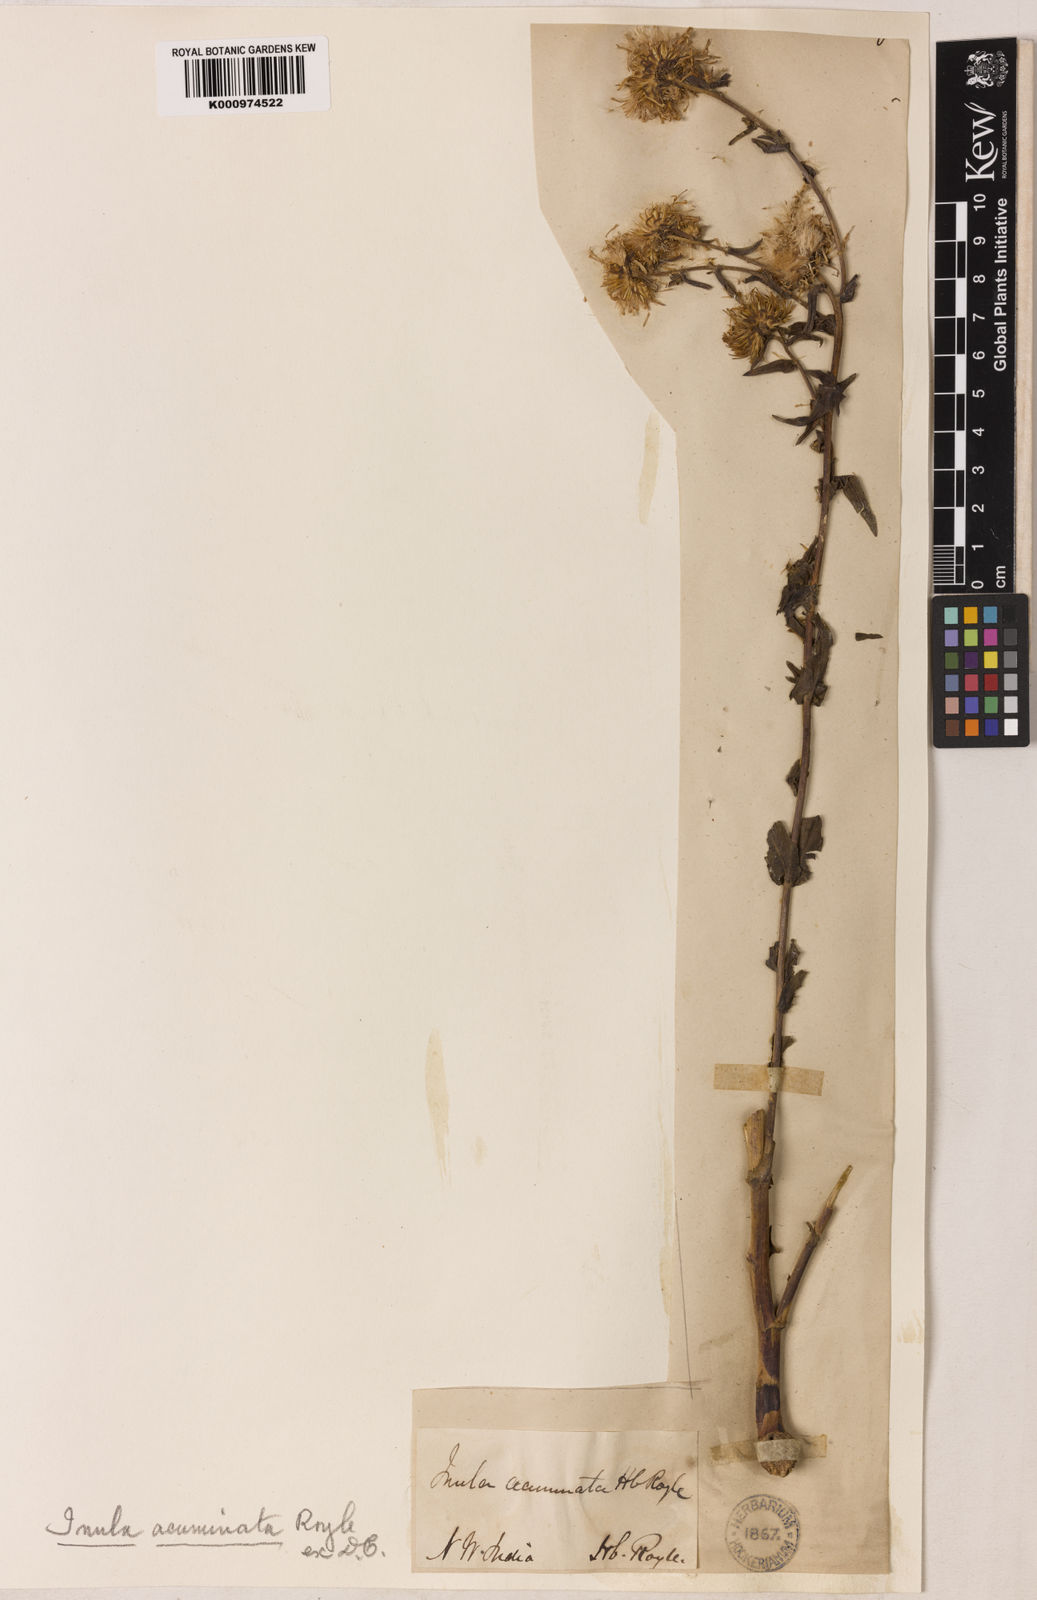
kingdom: Plantae
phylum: Tracheophyta
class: Magnoliopsida
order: Asterales
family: Asteraceae
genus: Inula
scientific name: Inula acuminata
